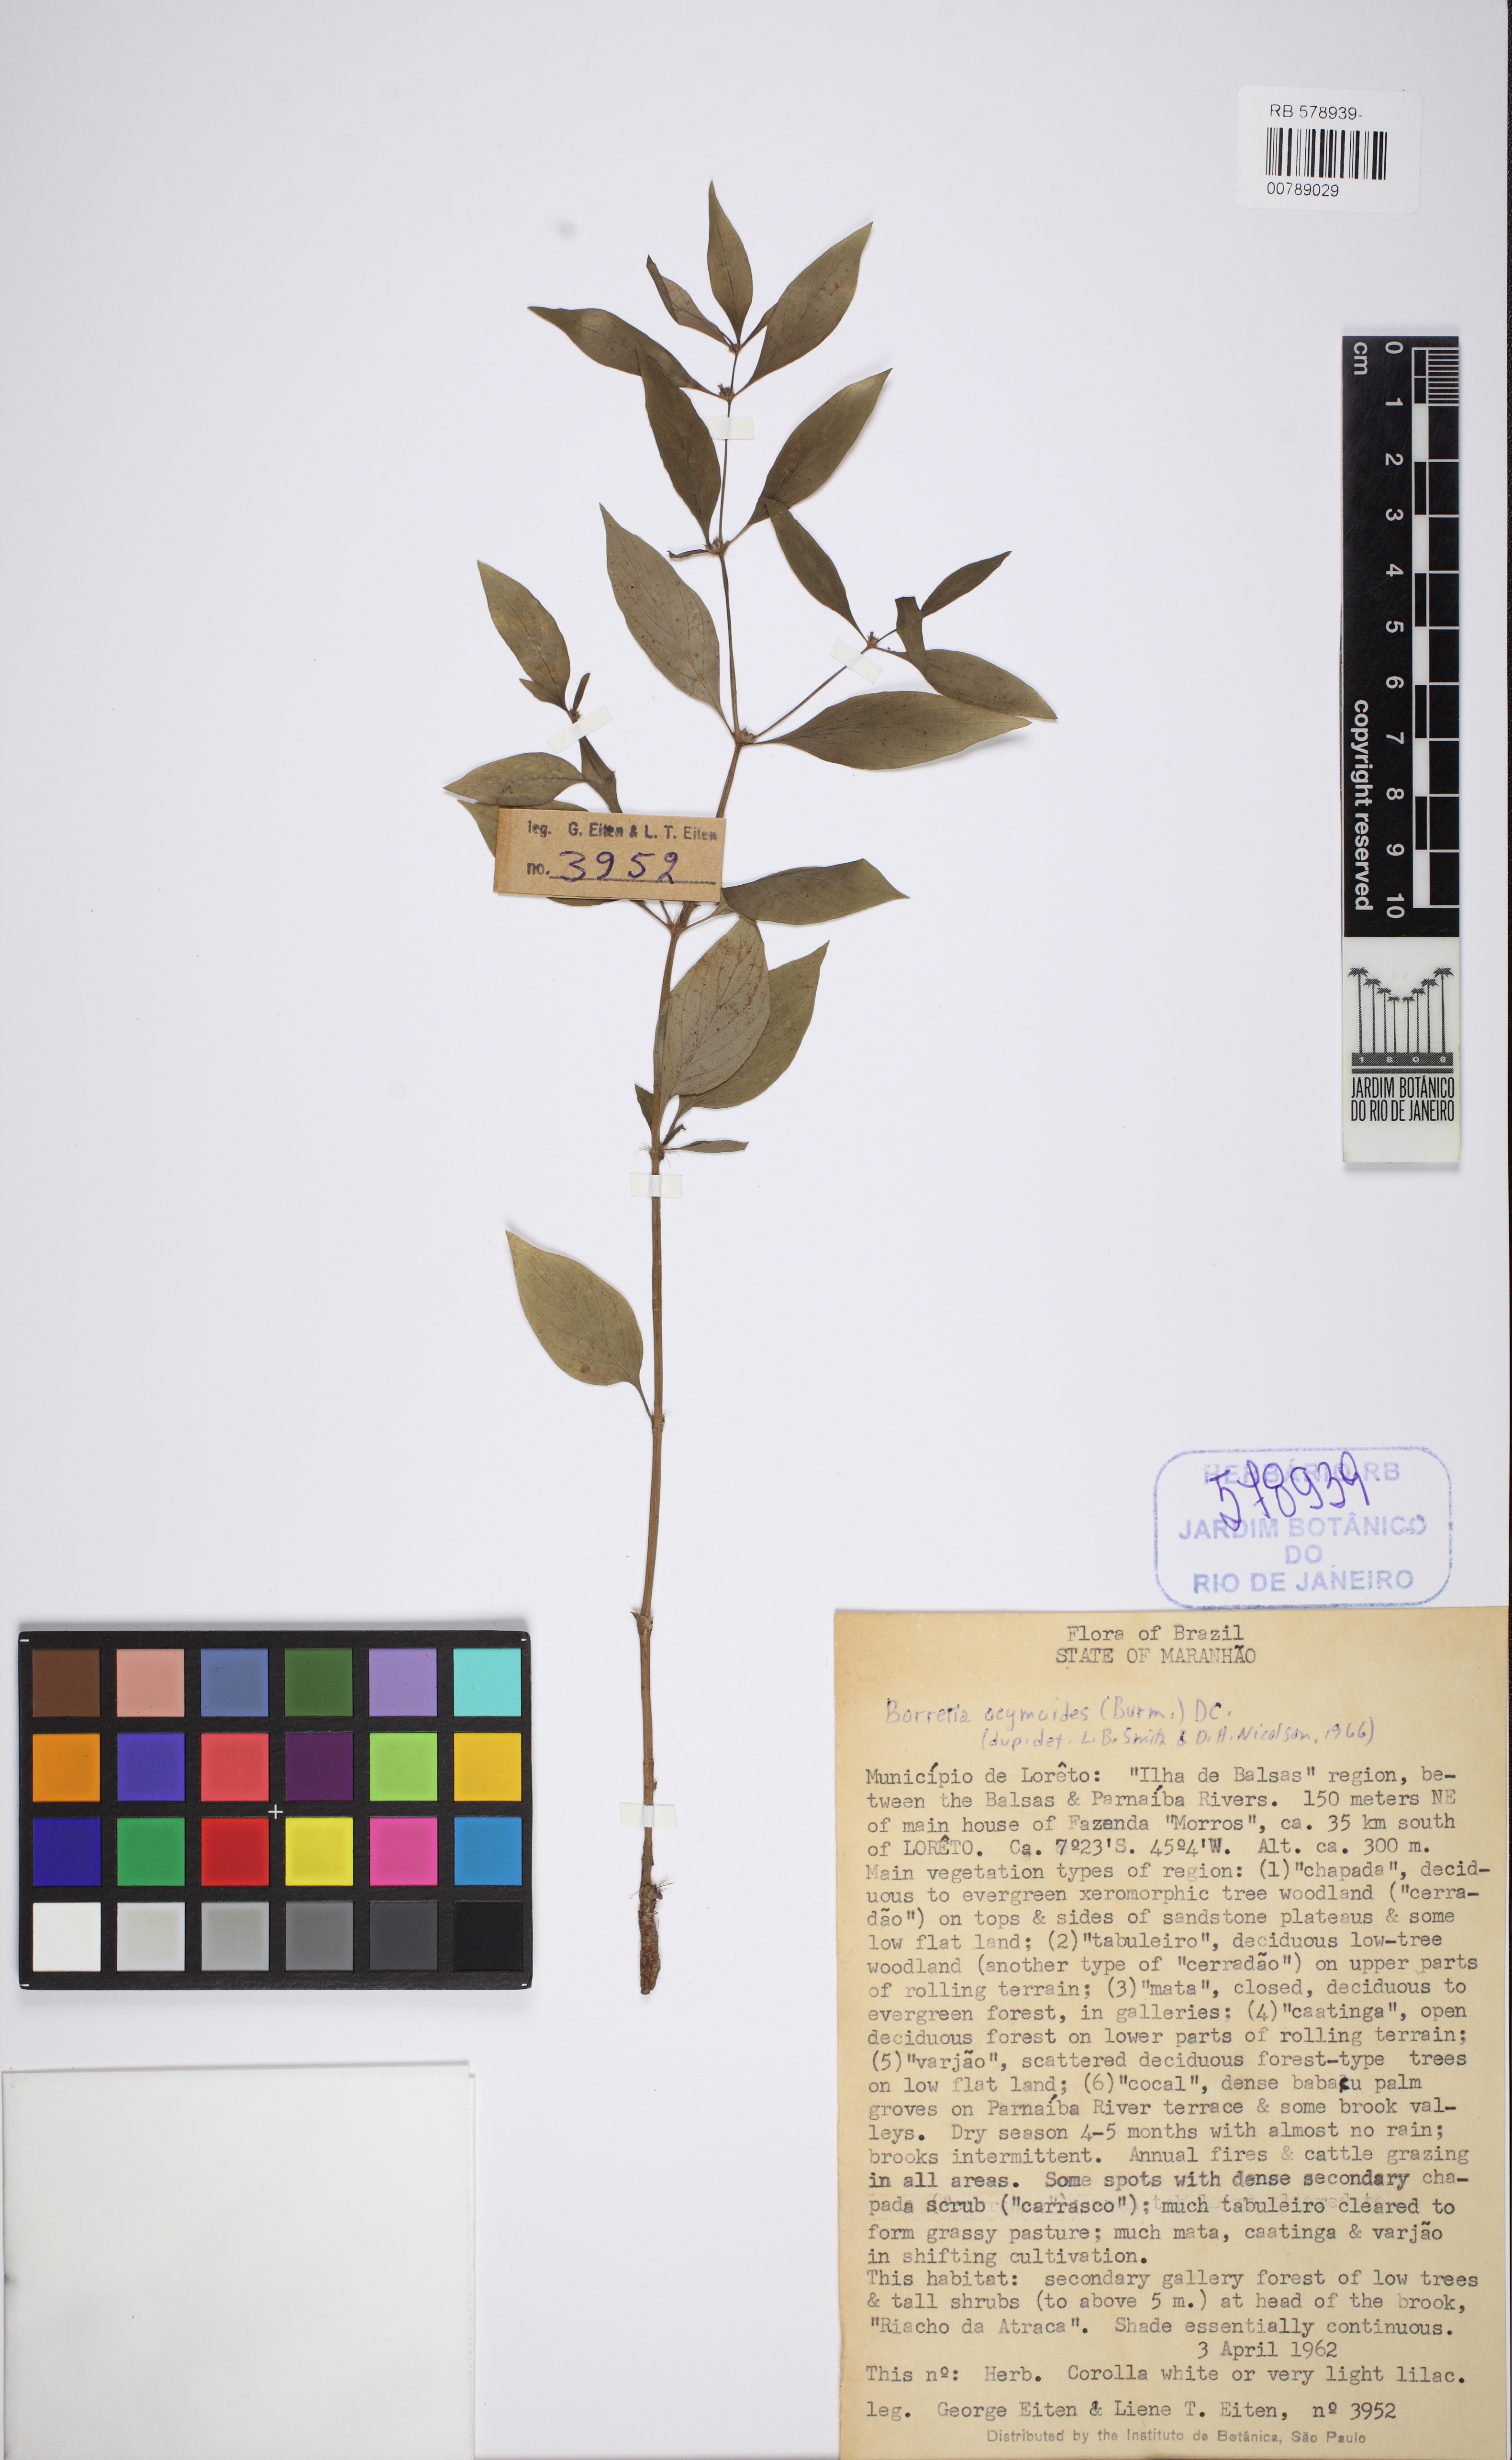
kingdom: Plantae
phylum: Tracheophyta
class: Magnoliopsida
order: Gentianales
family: Rubiaceae
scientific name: Rubiaceae
